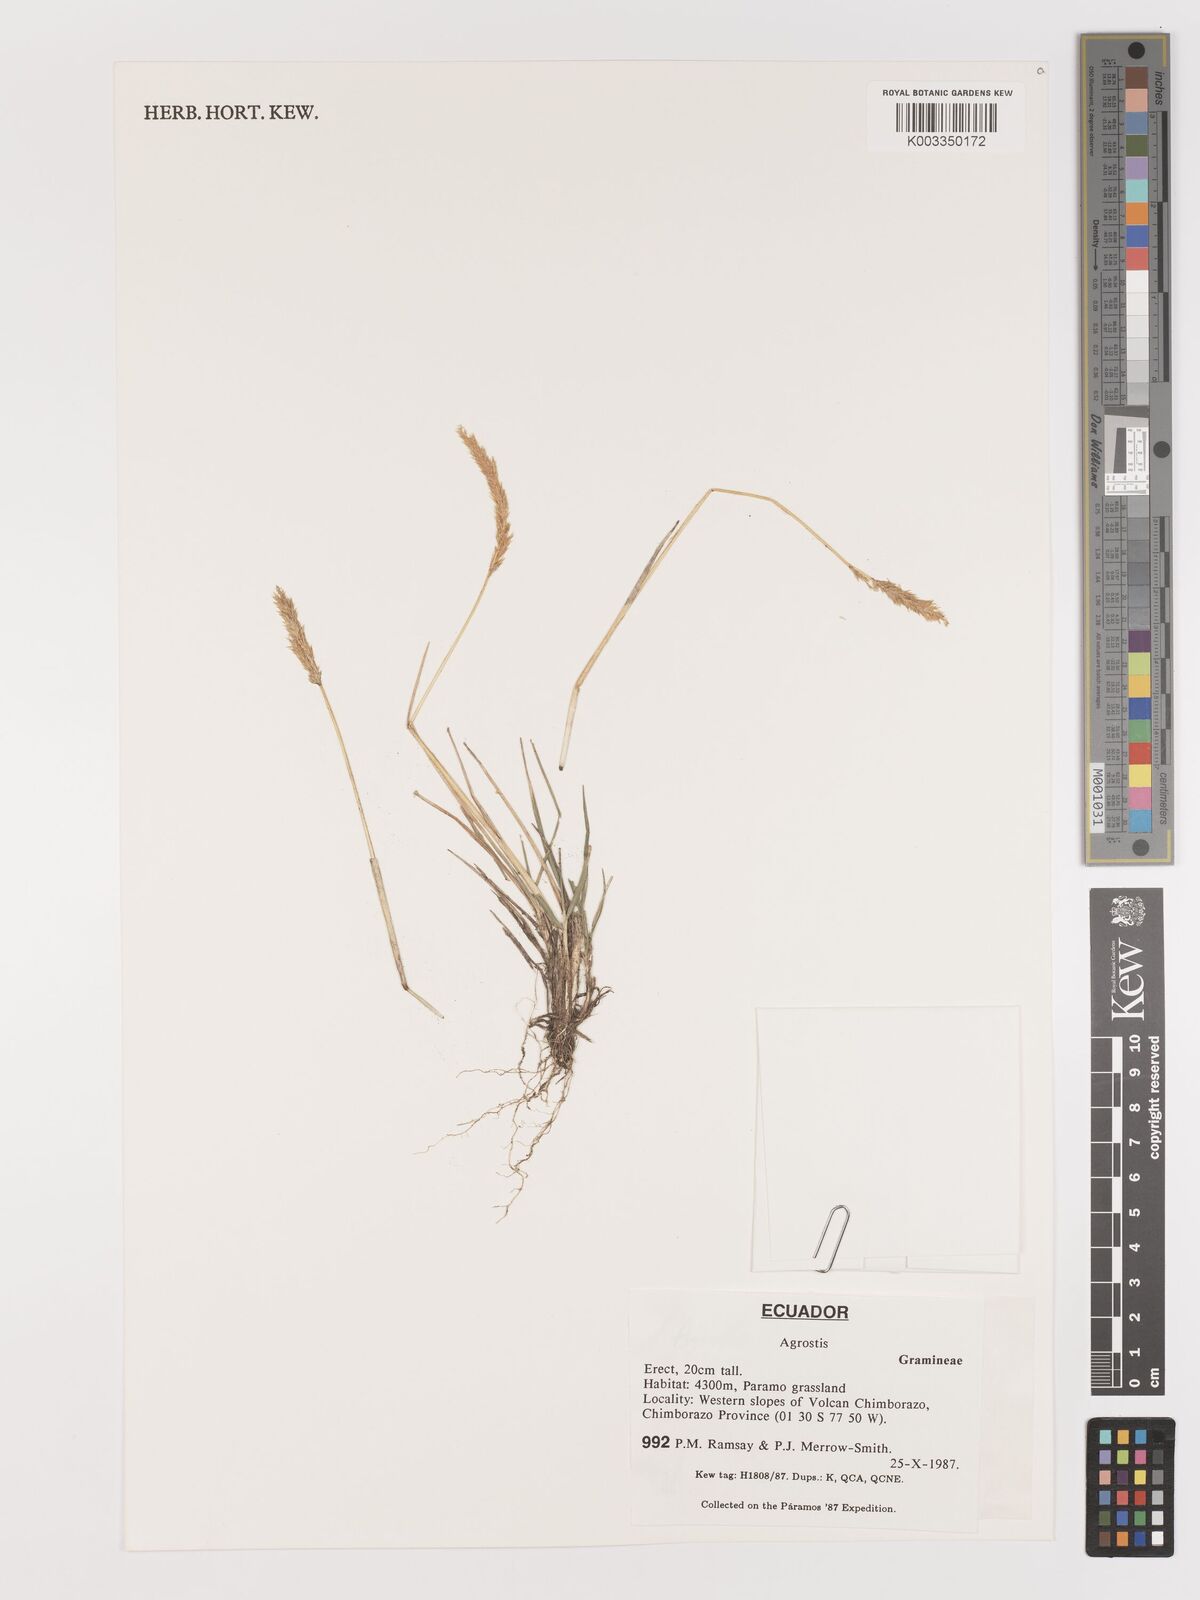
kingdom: Plantae
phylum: Tracheophyta
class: Liliopsida
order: Poales
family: Poaceae
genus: Agrostis
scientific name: Agrostis
